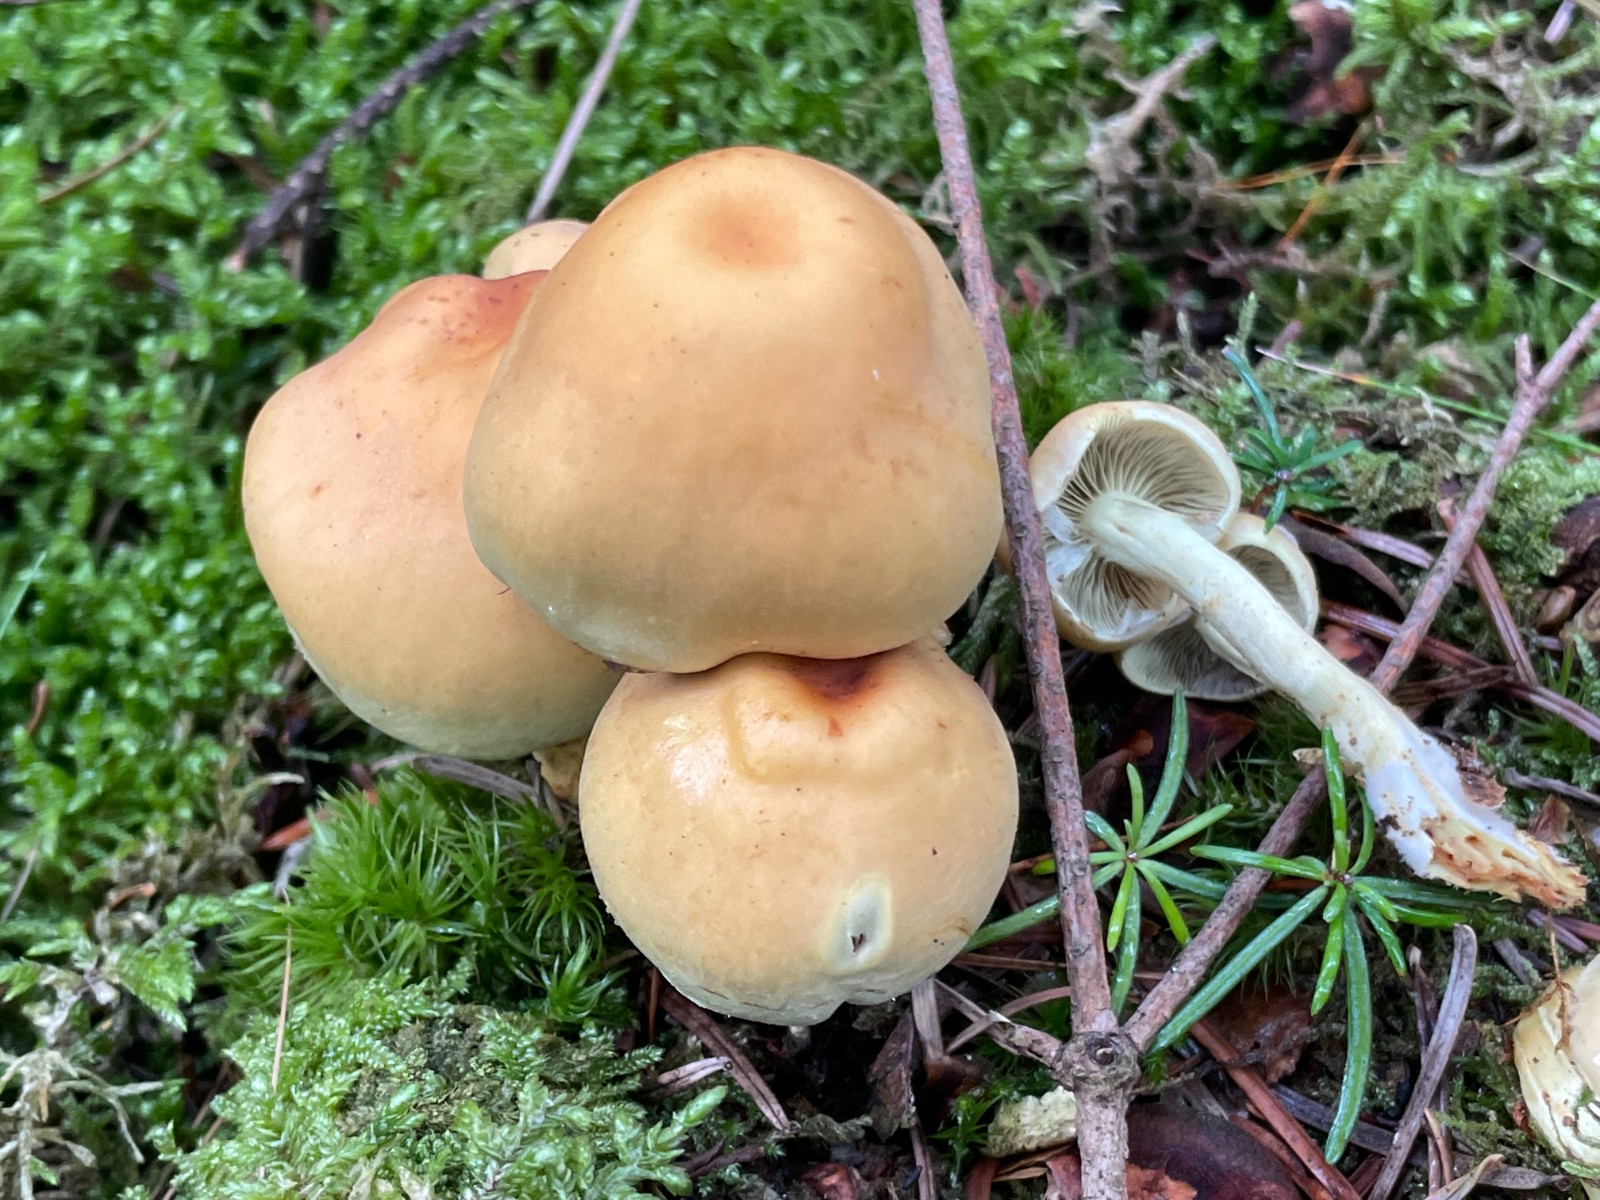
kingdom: Fungi
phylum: Basidiomycota
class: Agaricomycetes
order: Agaricales
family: Strophariaceae
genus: Hypholoma
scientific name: Hypholoma fasciculare
